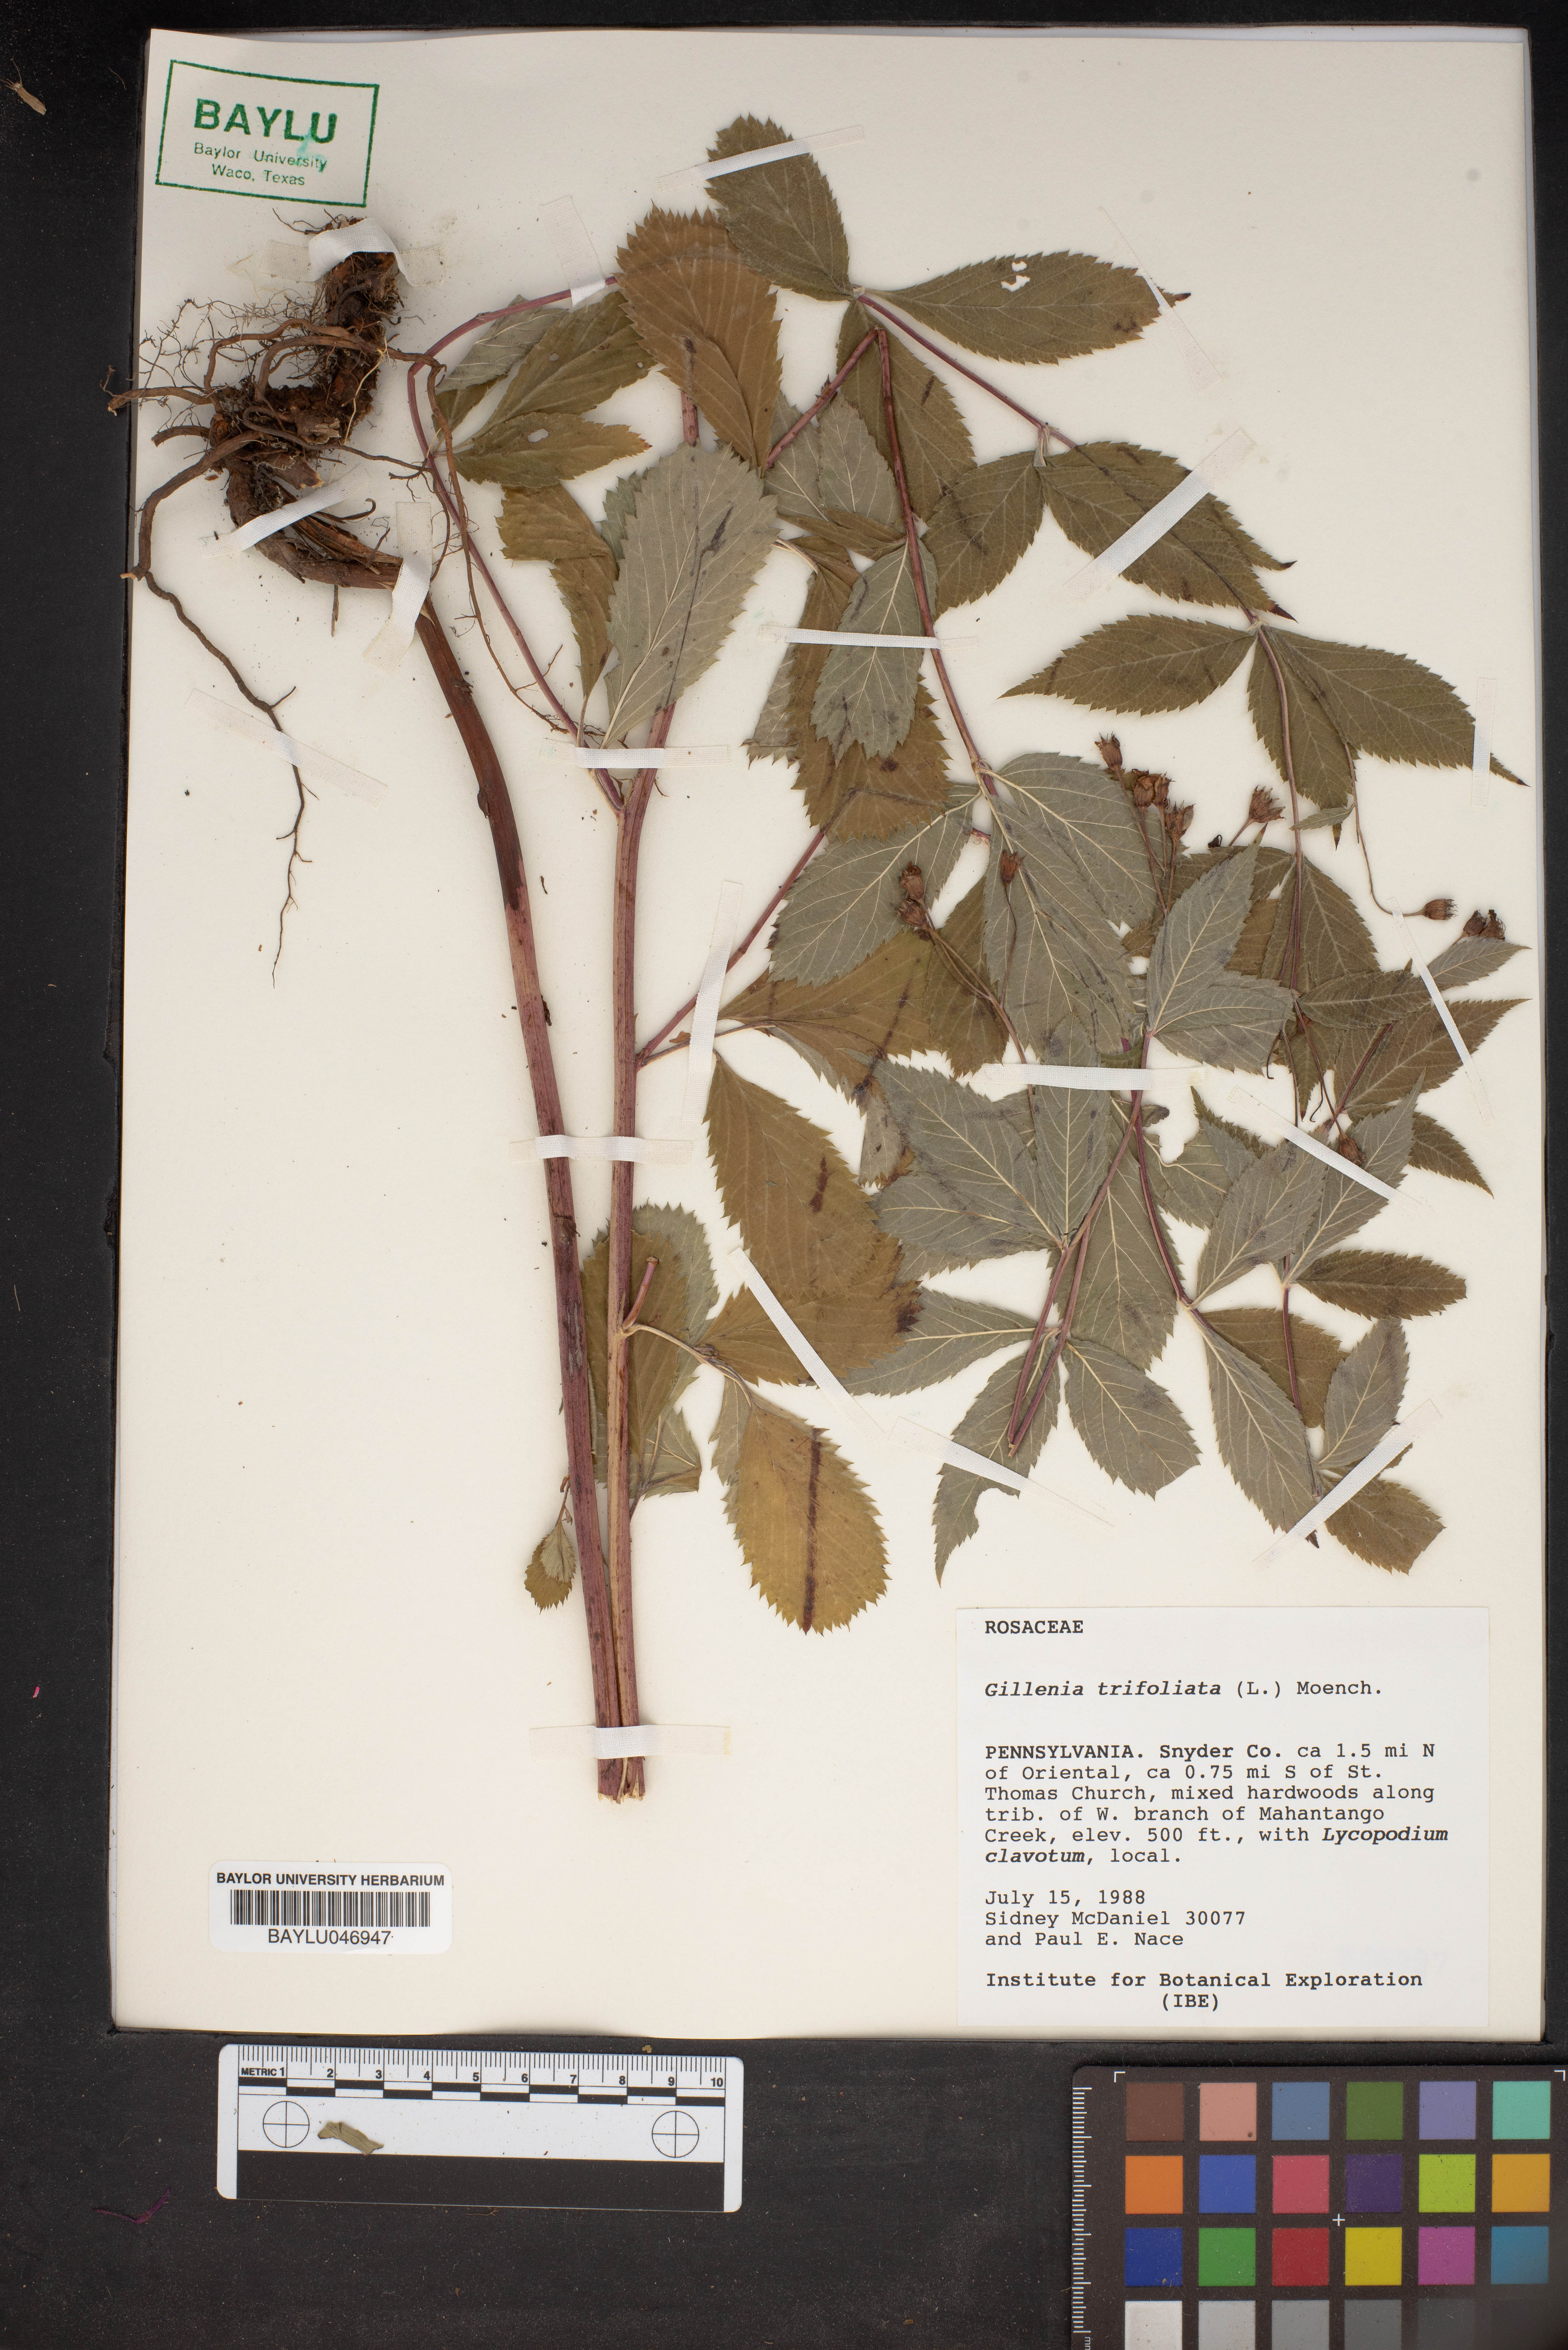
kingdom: Plantae
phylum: Tracheophyta
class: Magnoliopsida
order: Rosales
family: Rosaceae
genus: Gillenia
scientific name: Gillenia trifoliata
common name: Bowman's-root
